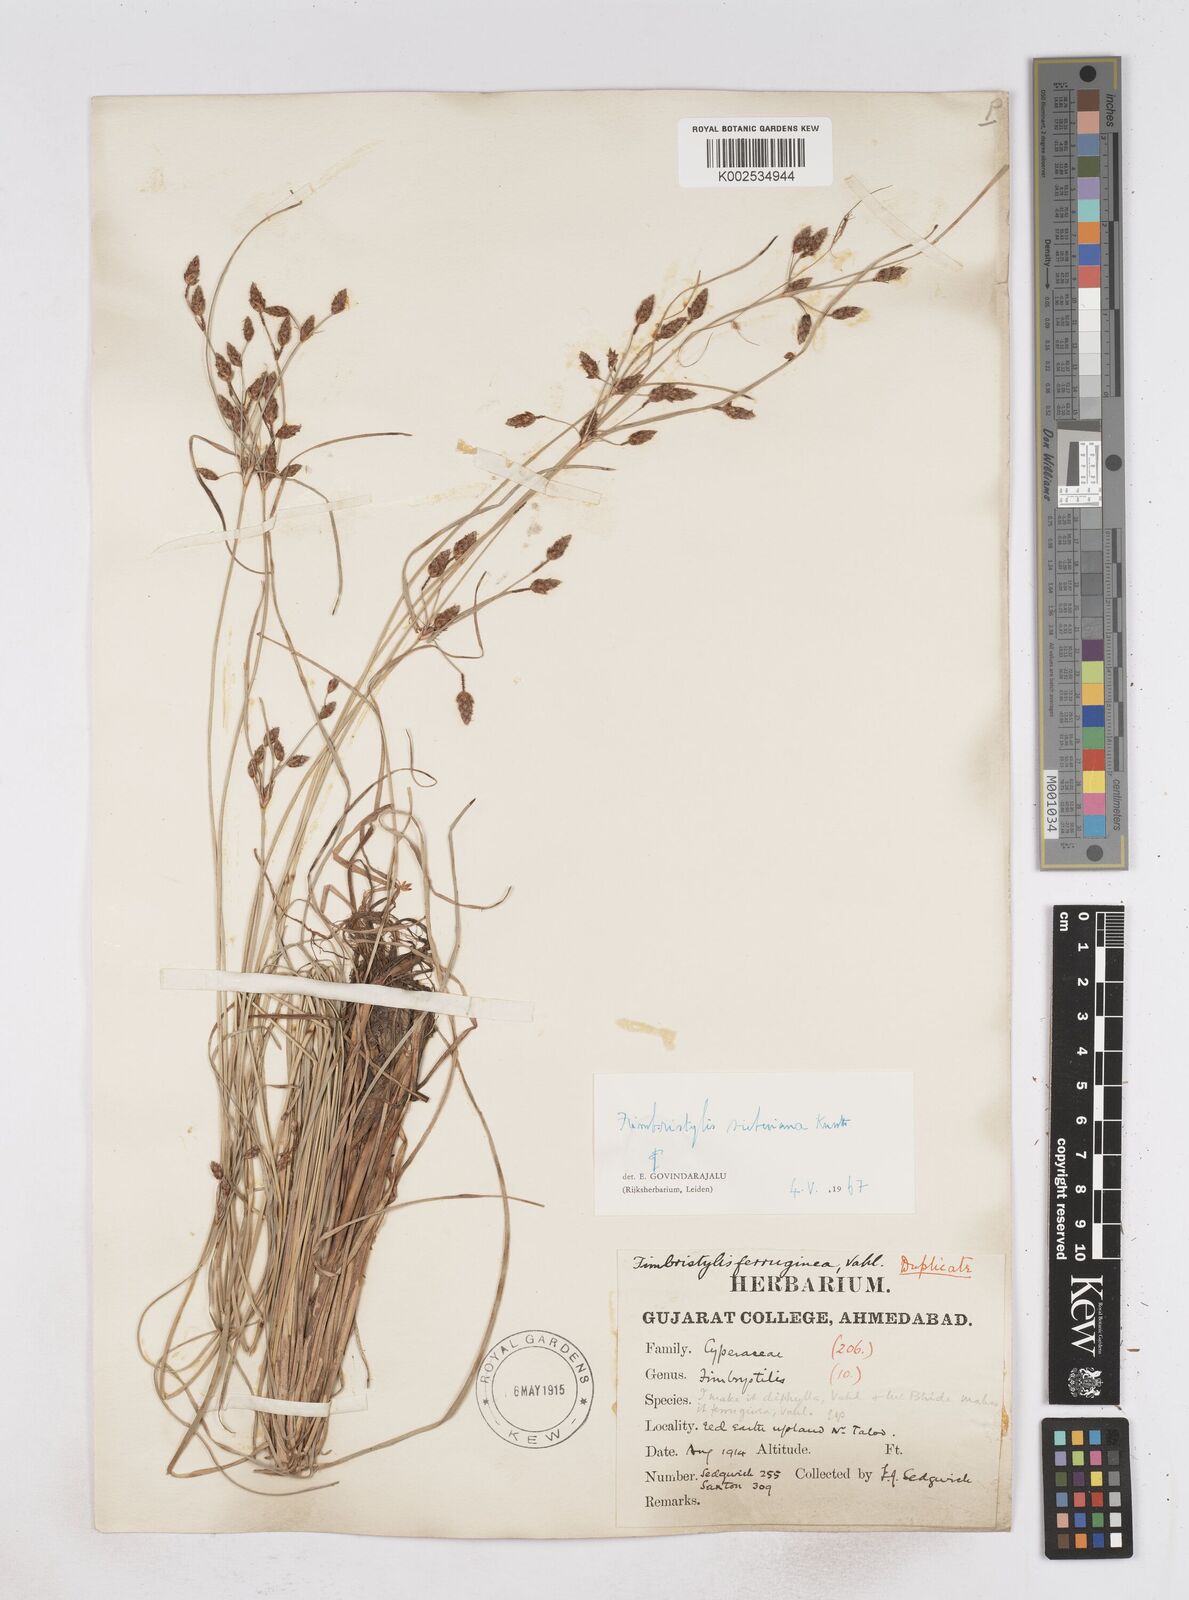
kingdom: Plantae
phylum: Tracheophyta
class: Liliopsida
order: Poales
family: Cyperaceae
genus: Fimbristylis
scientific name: Fimbristylis ferruginea
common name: West indian fimbry
